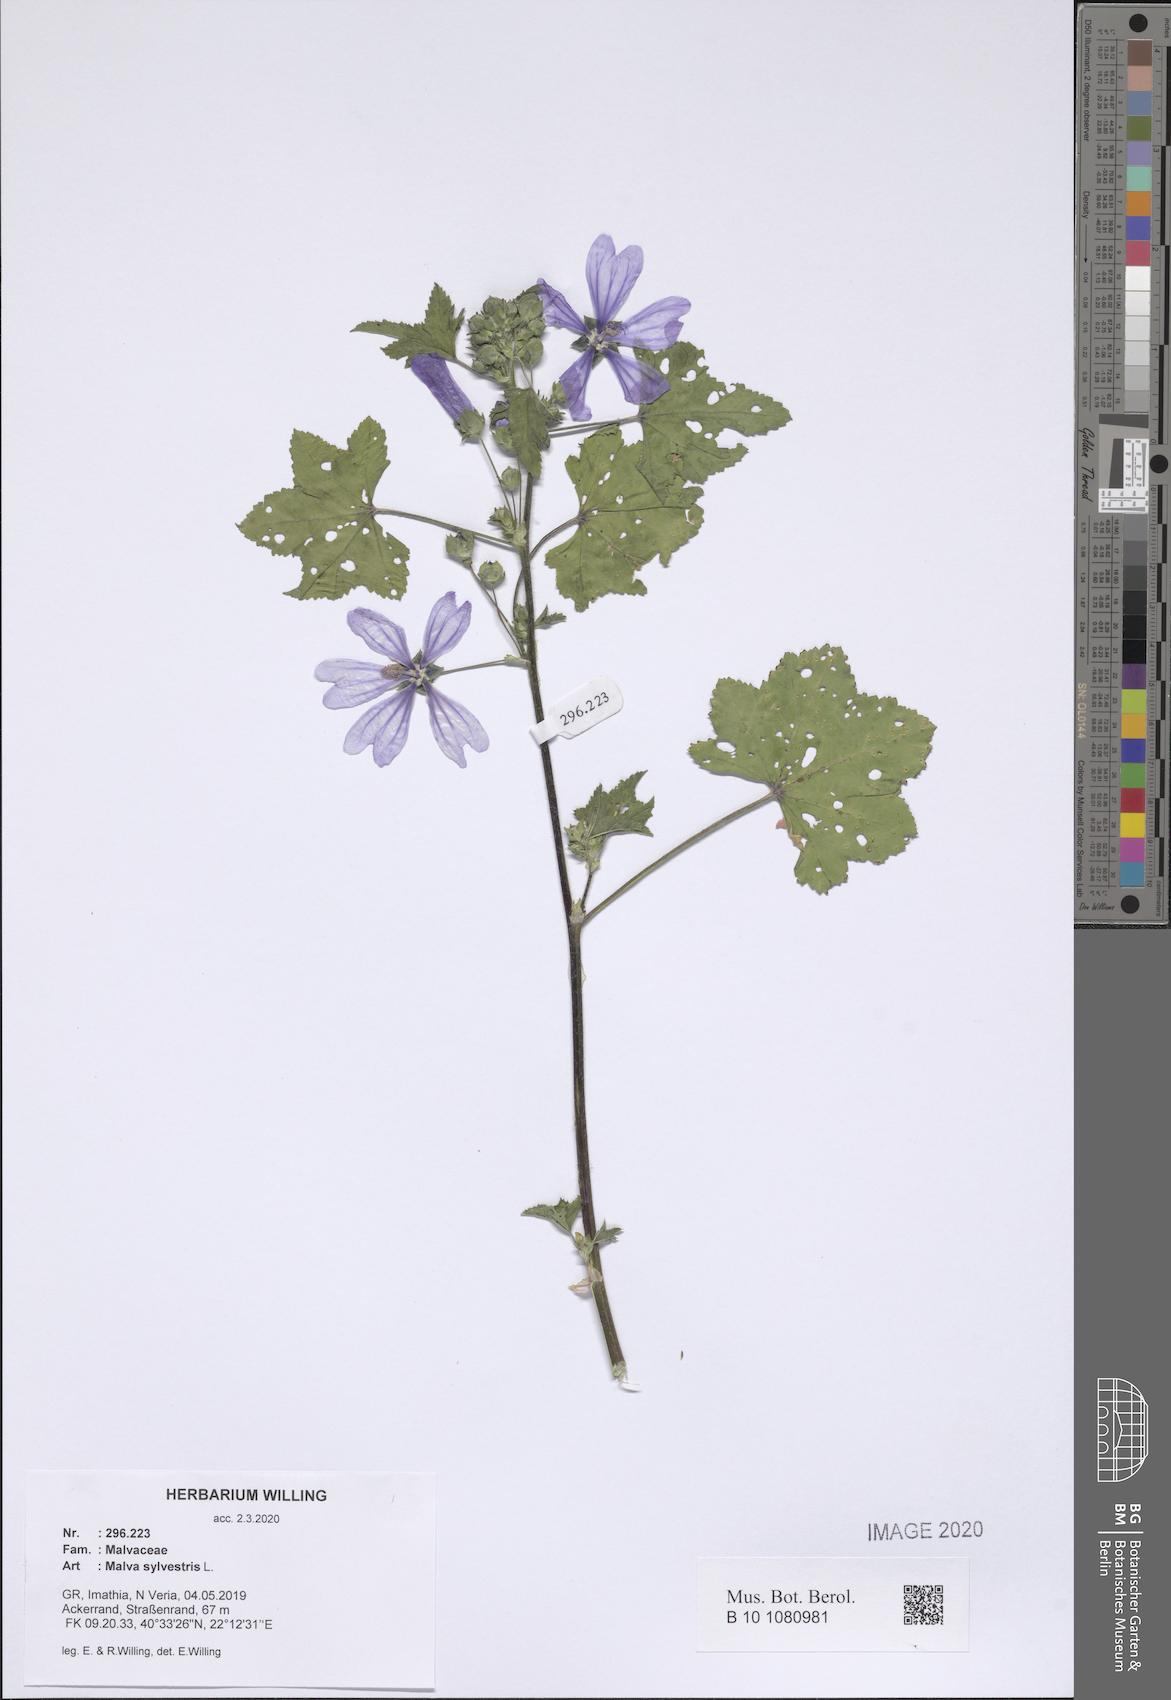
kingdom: Plantae
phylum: Tracheophyta
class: Magnoliopsida
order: Malvales
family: Malvaceae
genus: Malva
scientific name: Malva sylvestris
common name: Common mallow
